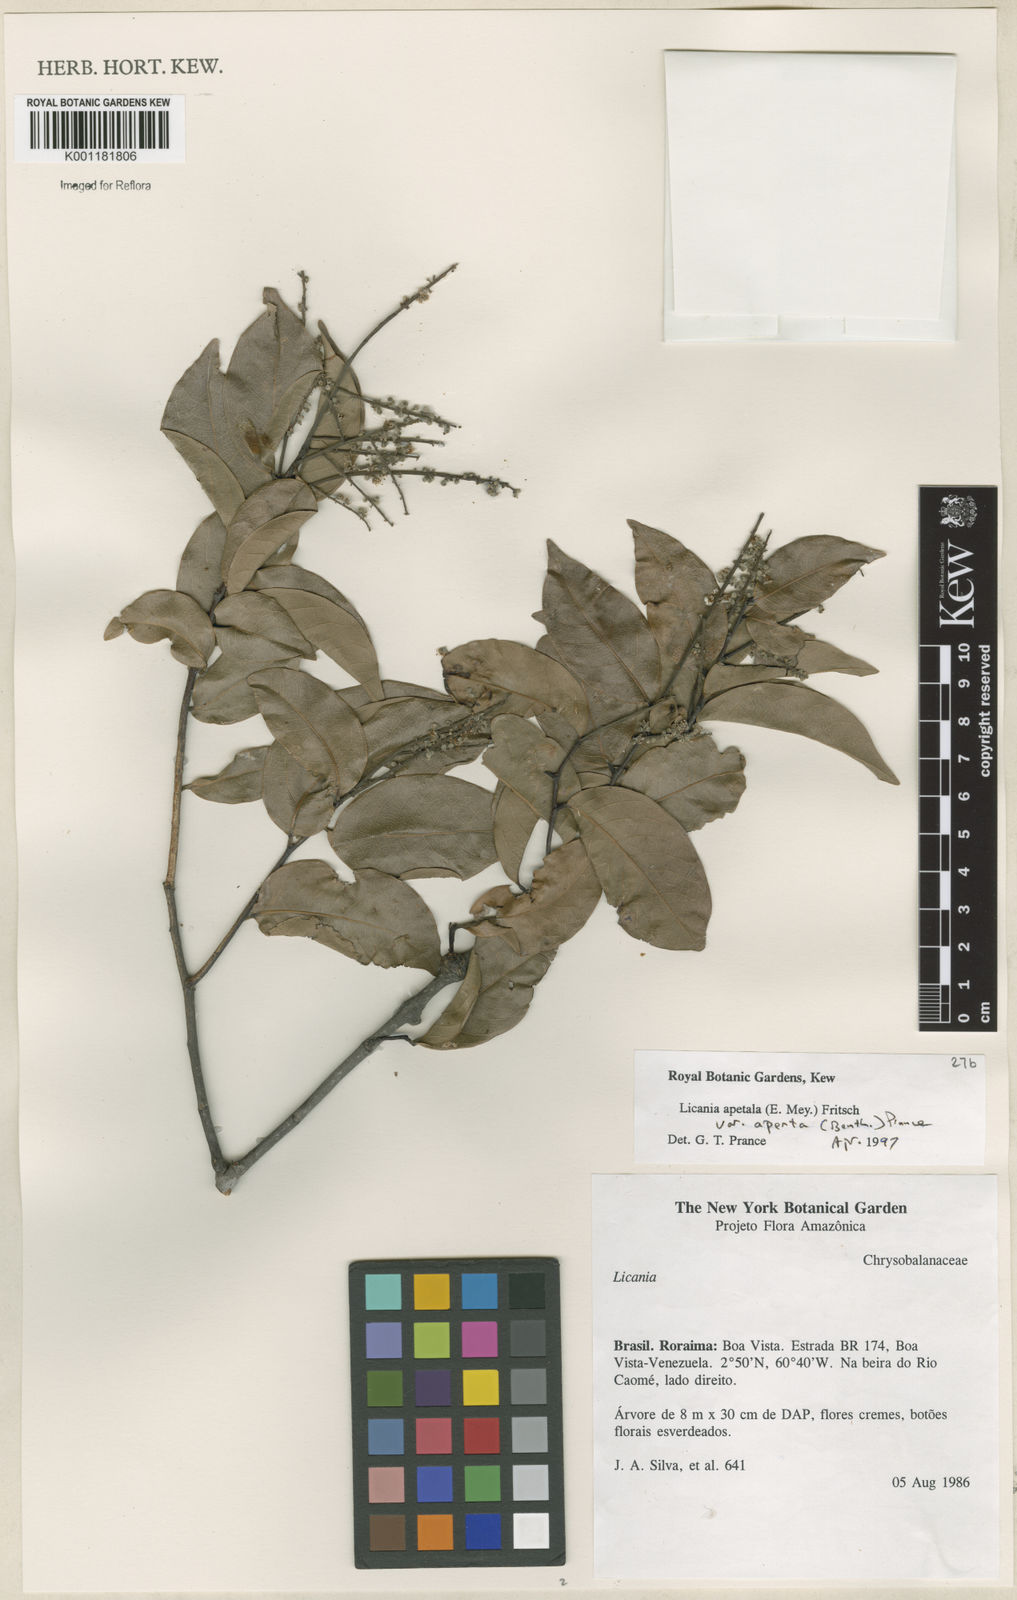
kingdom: Plantae
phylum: Tracheophyta
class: Magnoliopsida
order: Malpighiales
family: Chrysobalanaceae
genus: Leptobalanus
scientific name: Leptobalanus apetalus
